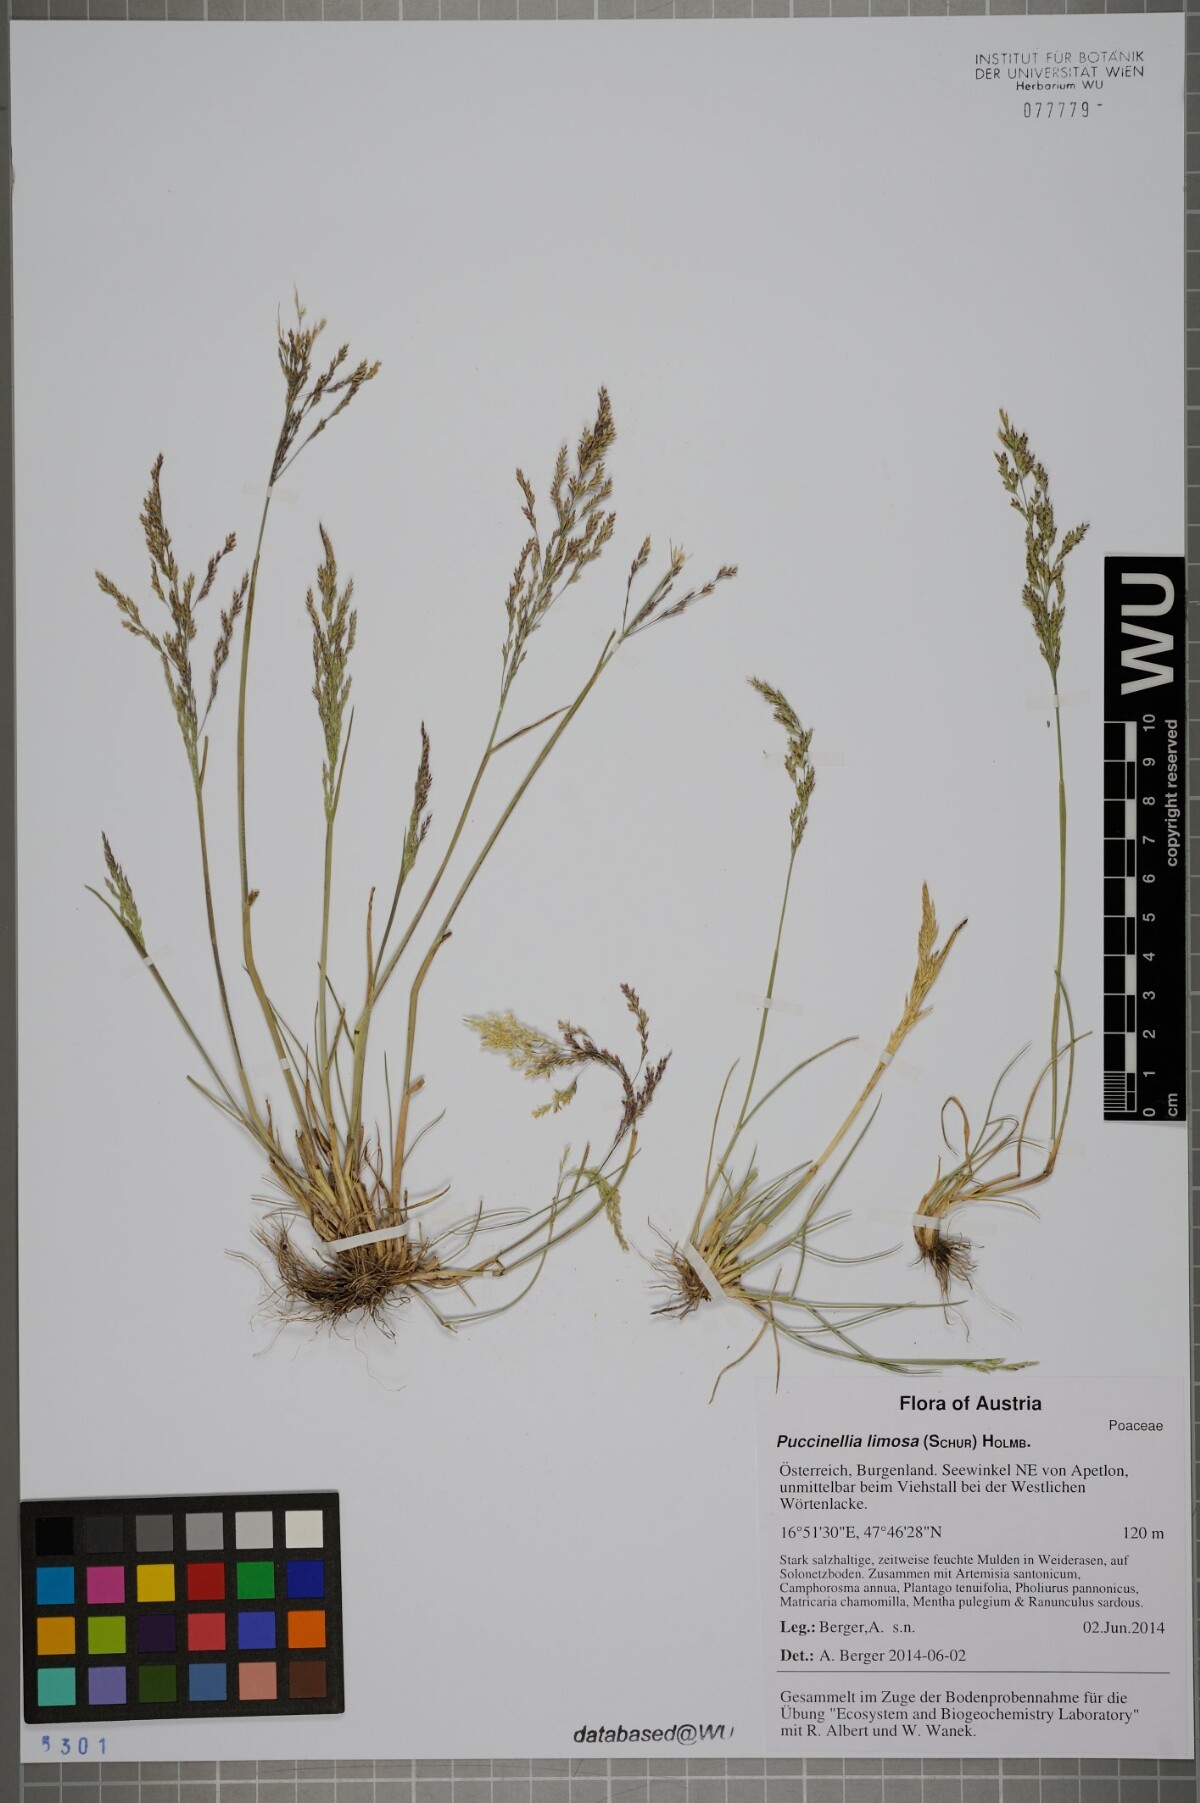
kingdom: Plantae
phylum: Tracheophyta
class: Liliopsida
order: Poales
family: Poaceae
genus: Puccinellia
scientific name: Puccinellia distans
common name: Weeping alkaligrass
